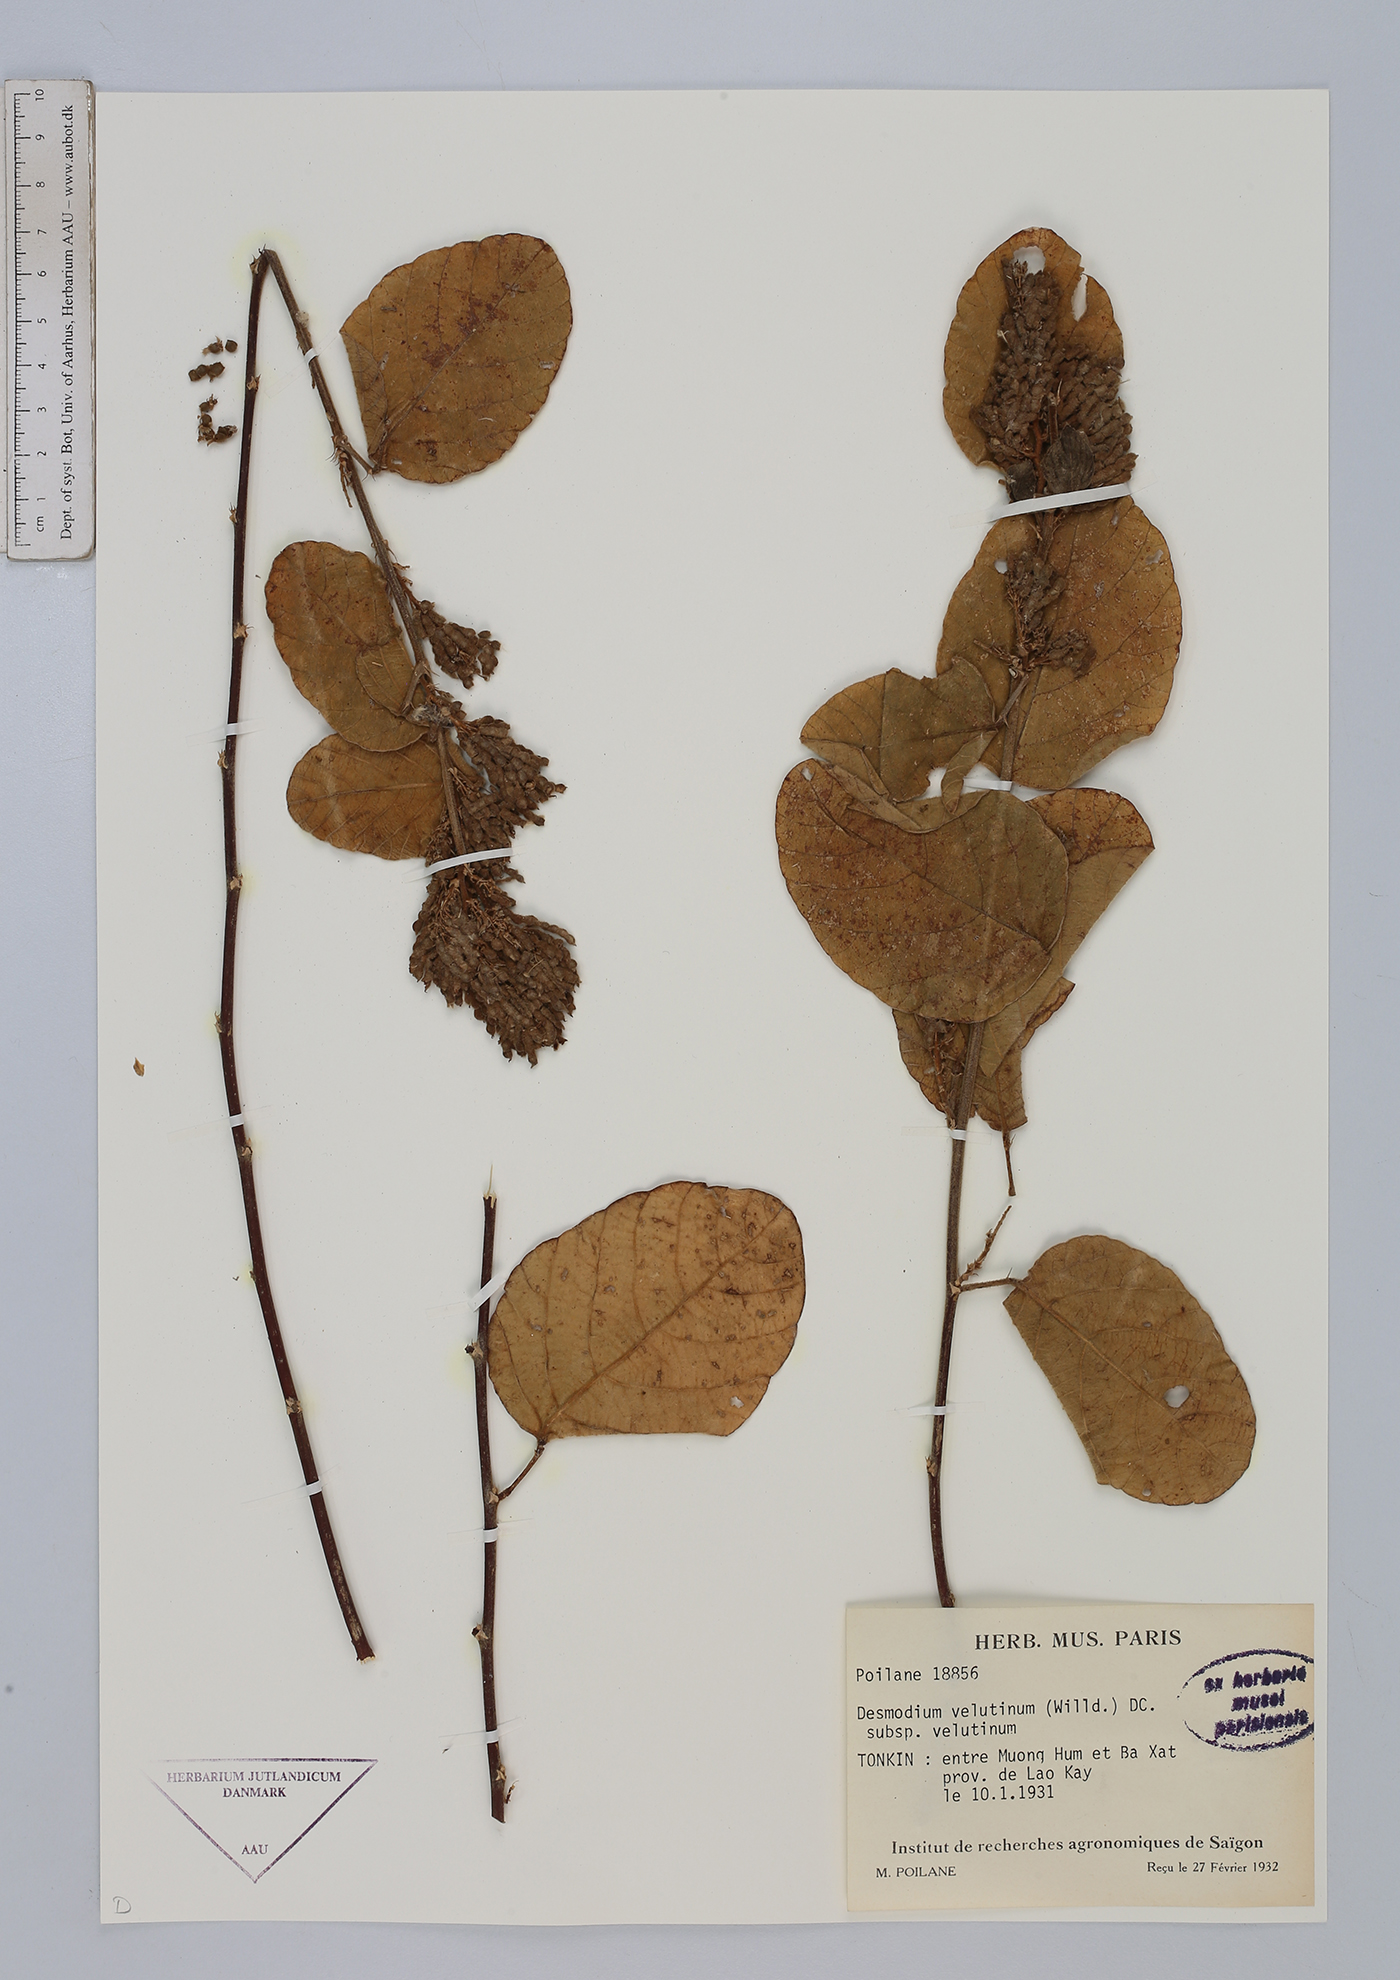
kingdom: Plantae
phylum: Tracheophyta
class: Magnoliopsida
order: Fabales
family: Fabaceae
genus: Polhillides
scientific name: Polhillides velutina
